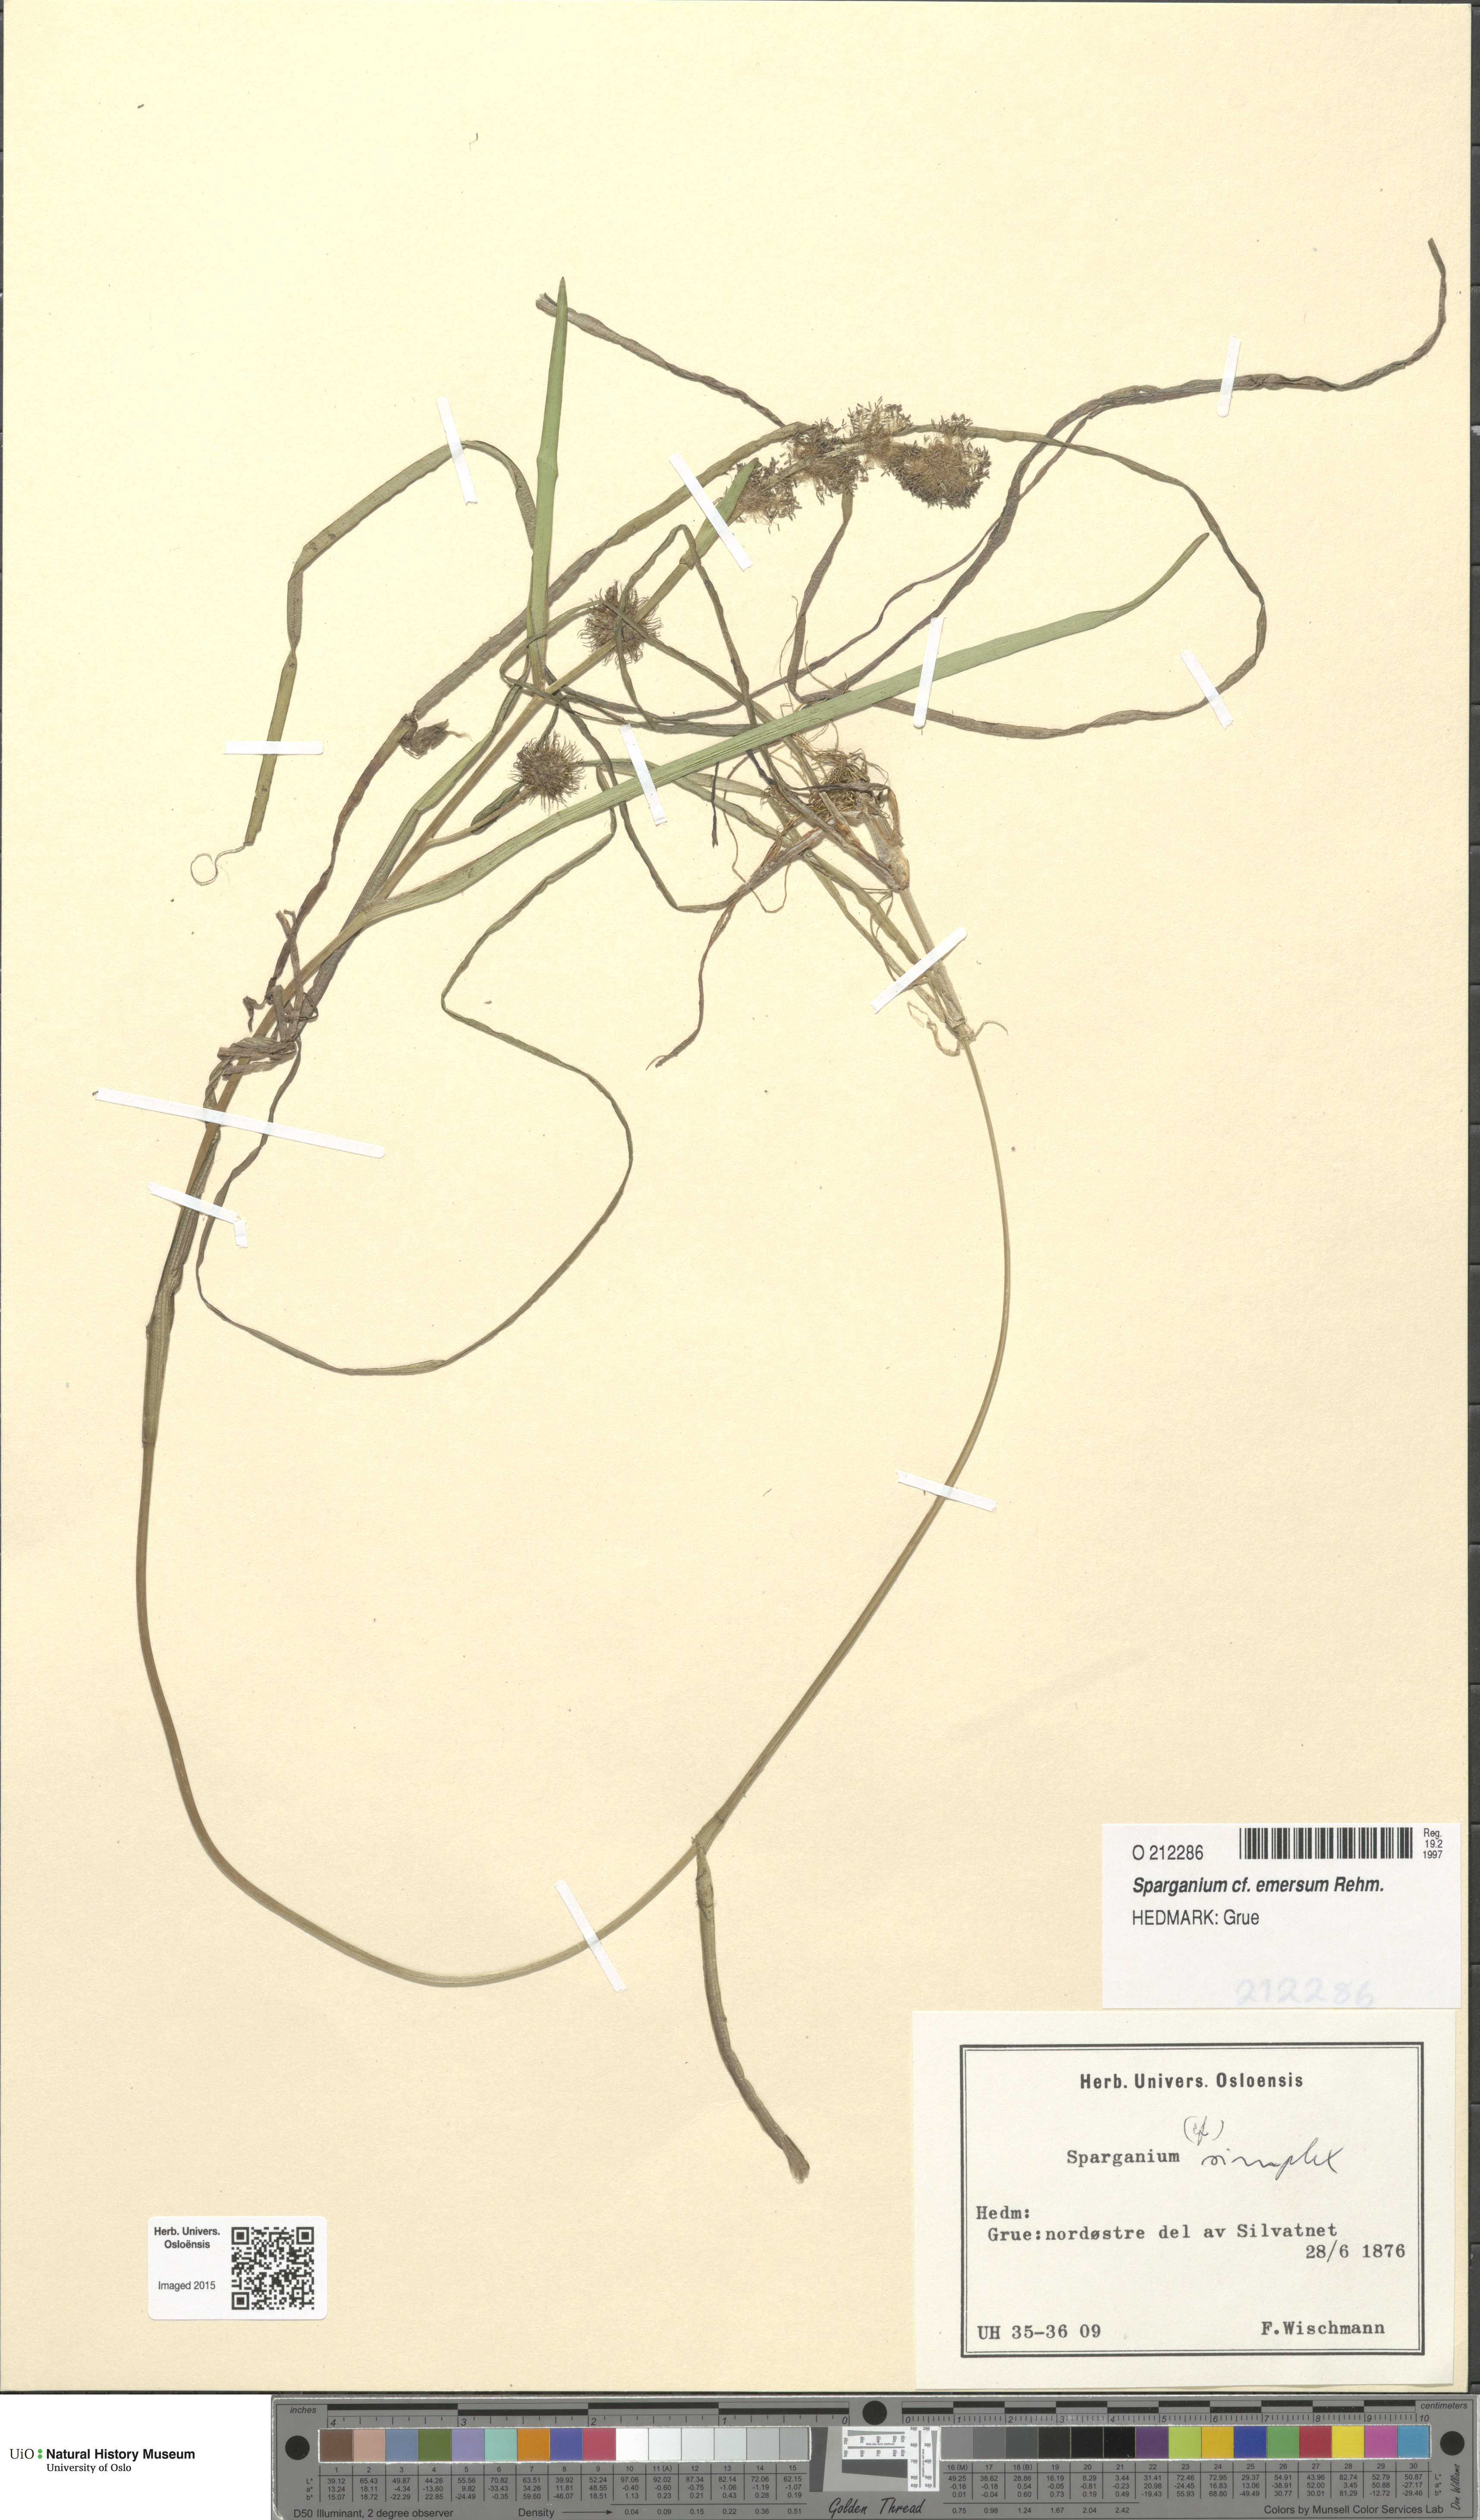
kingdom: Plantae
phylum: Tracheophyta
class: Liliopsida
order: Poales
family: Typhaceae
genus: Sparganium
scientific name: Sparganium emersum
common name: Unbranched bur-reed
